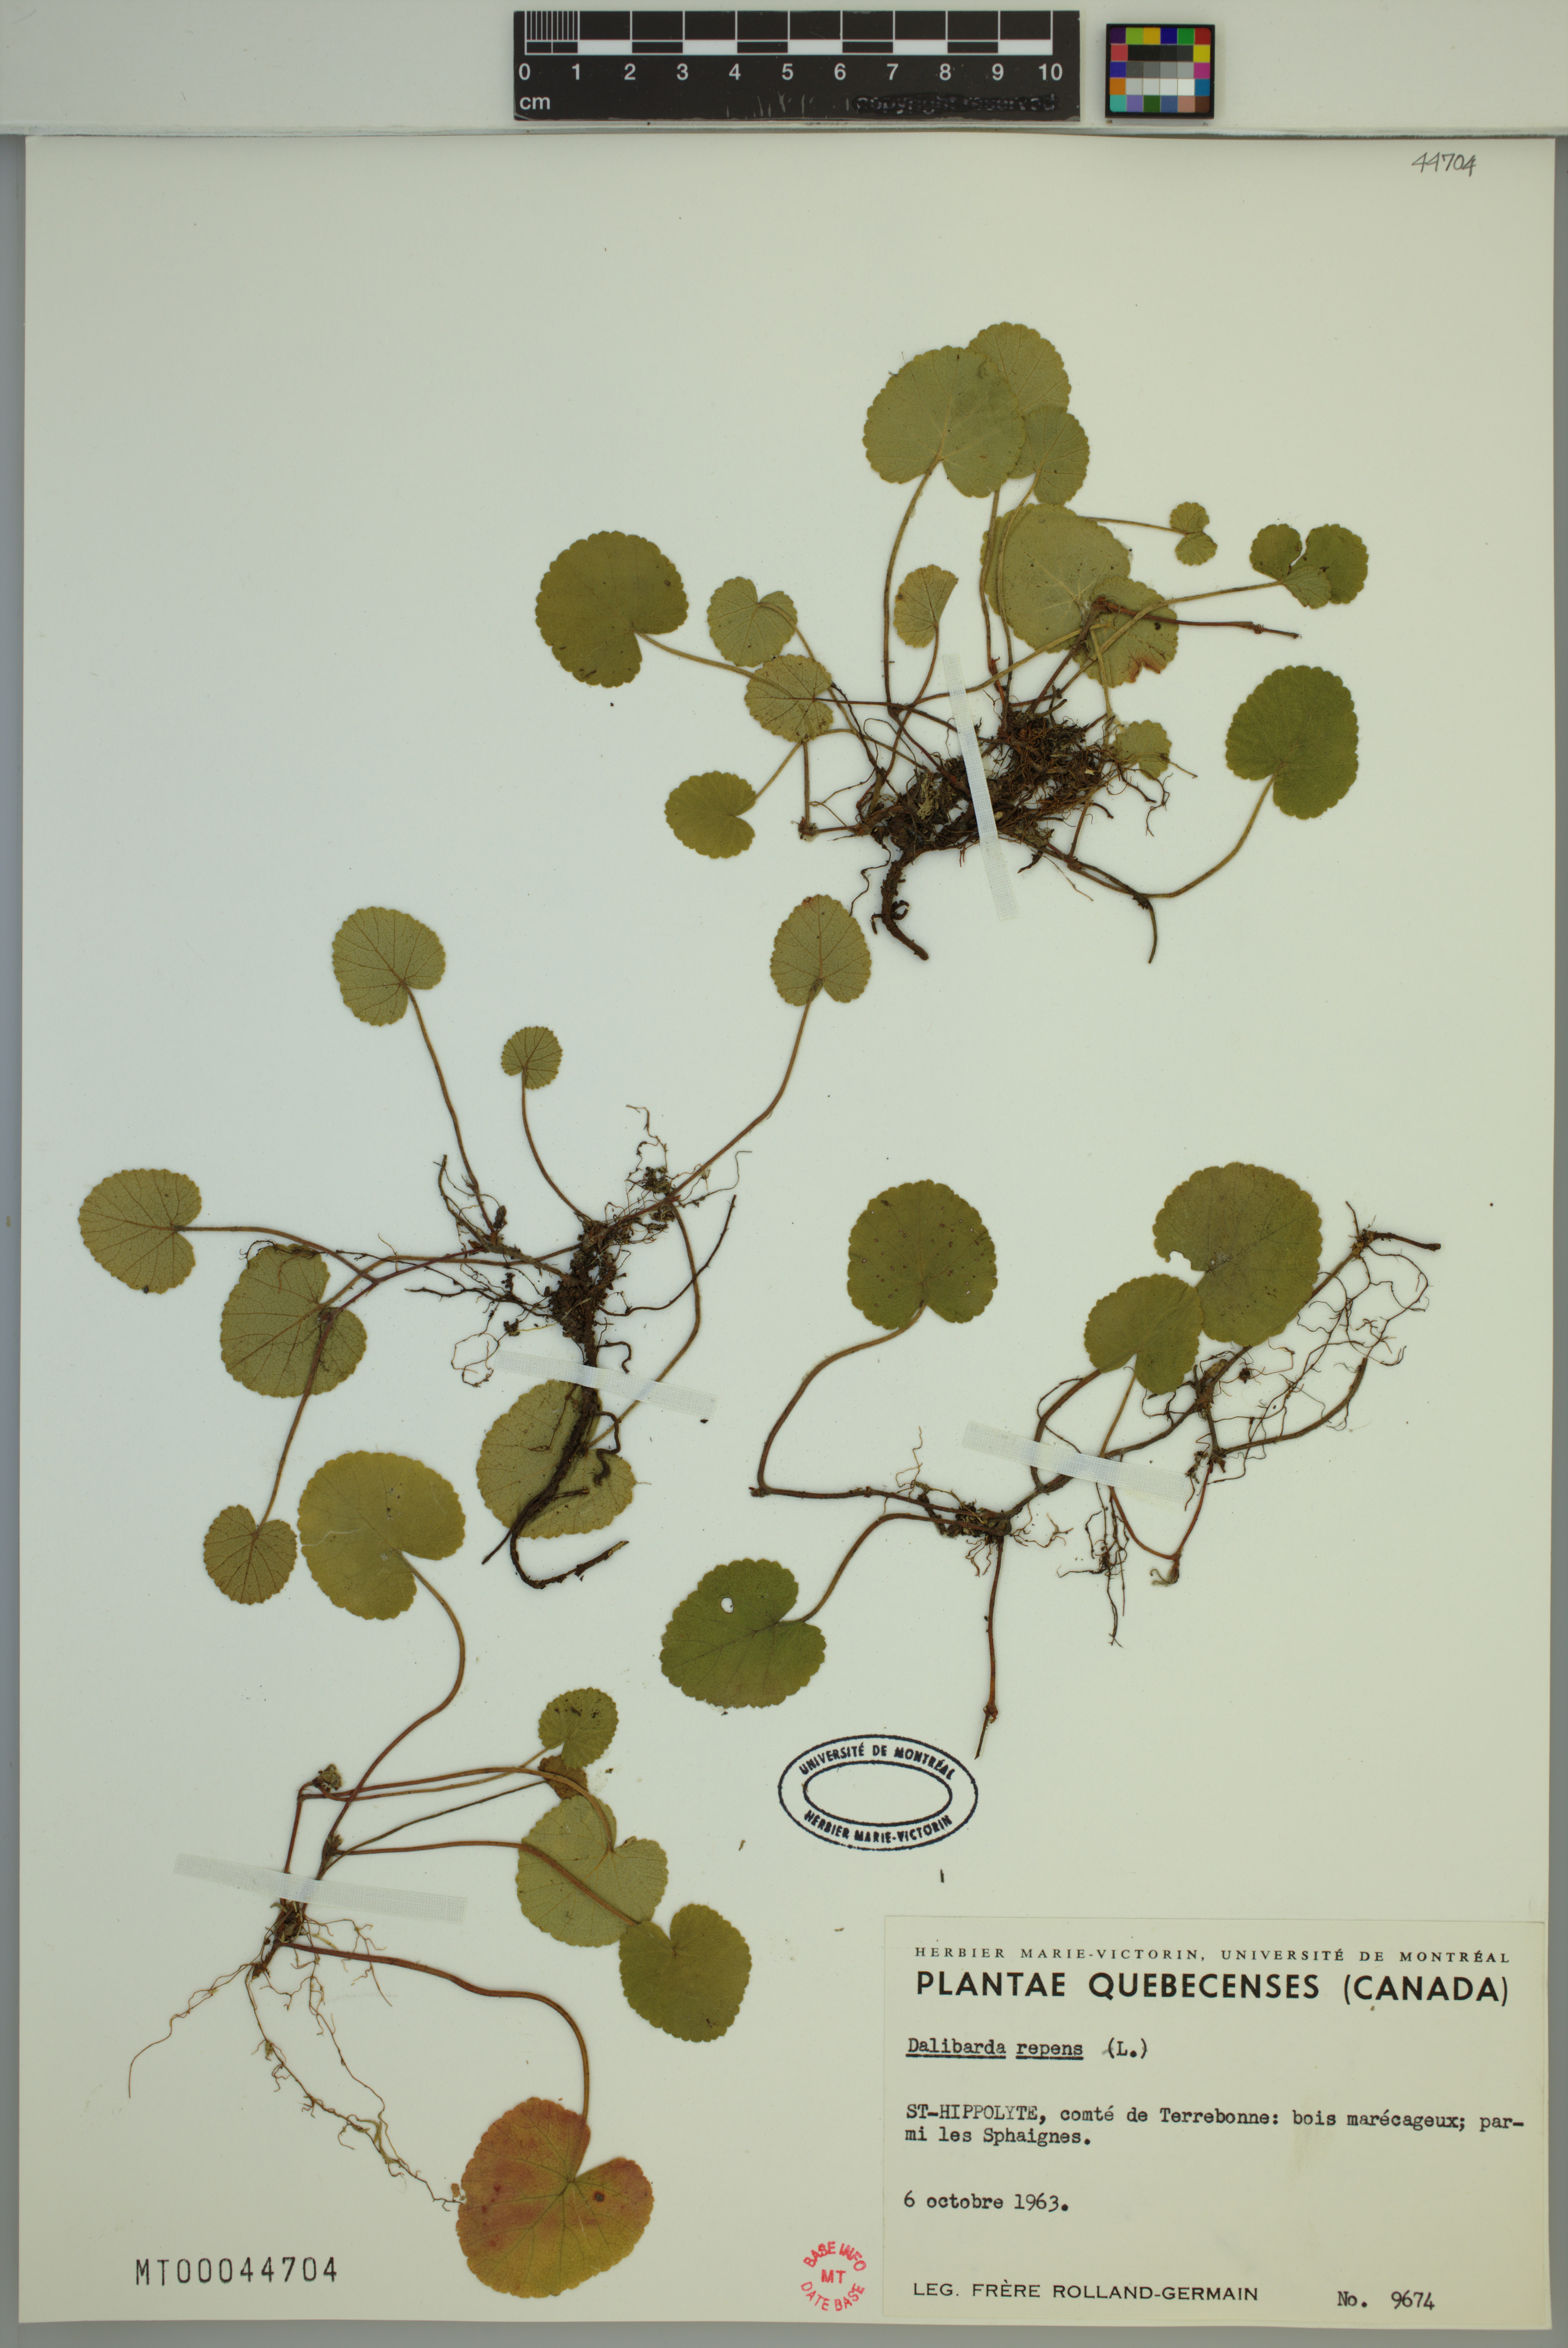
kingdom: Plantae
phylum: Tracheophyta
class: Magnoliopsida
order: Rosales
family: Rosaceae
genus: Dalibarda
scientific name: Dalibarda repens
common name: Dewdrop
